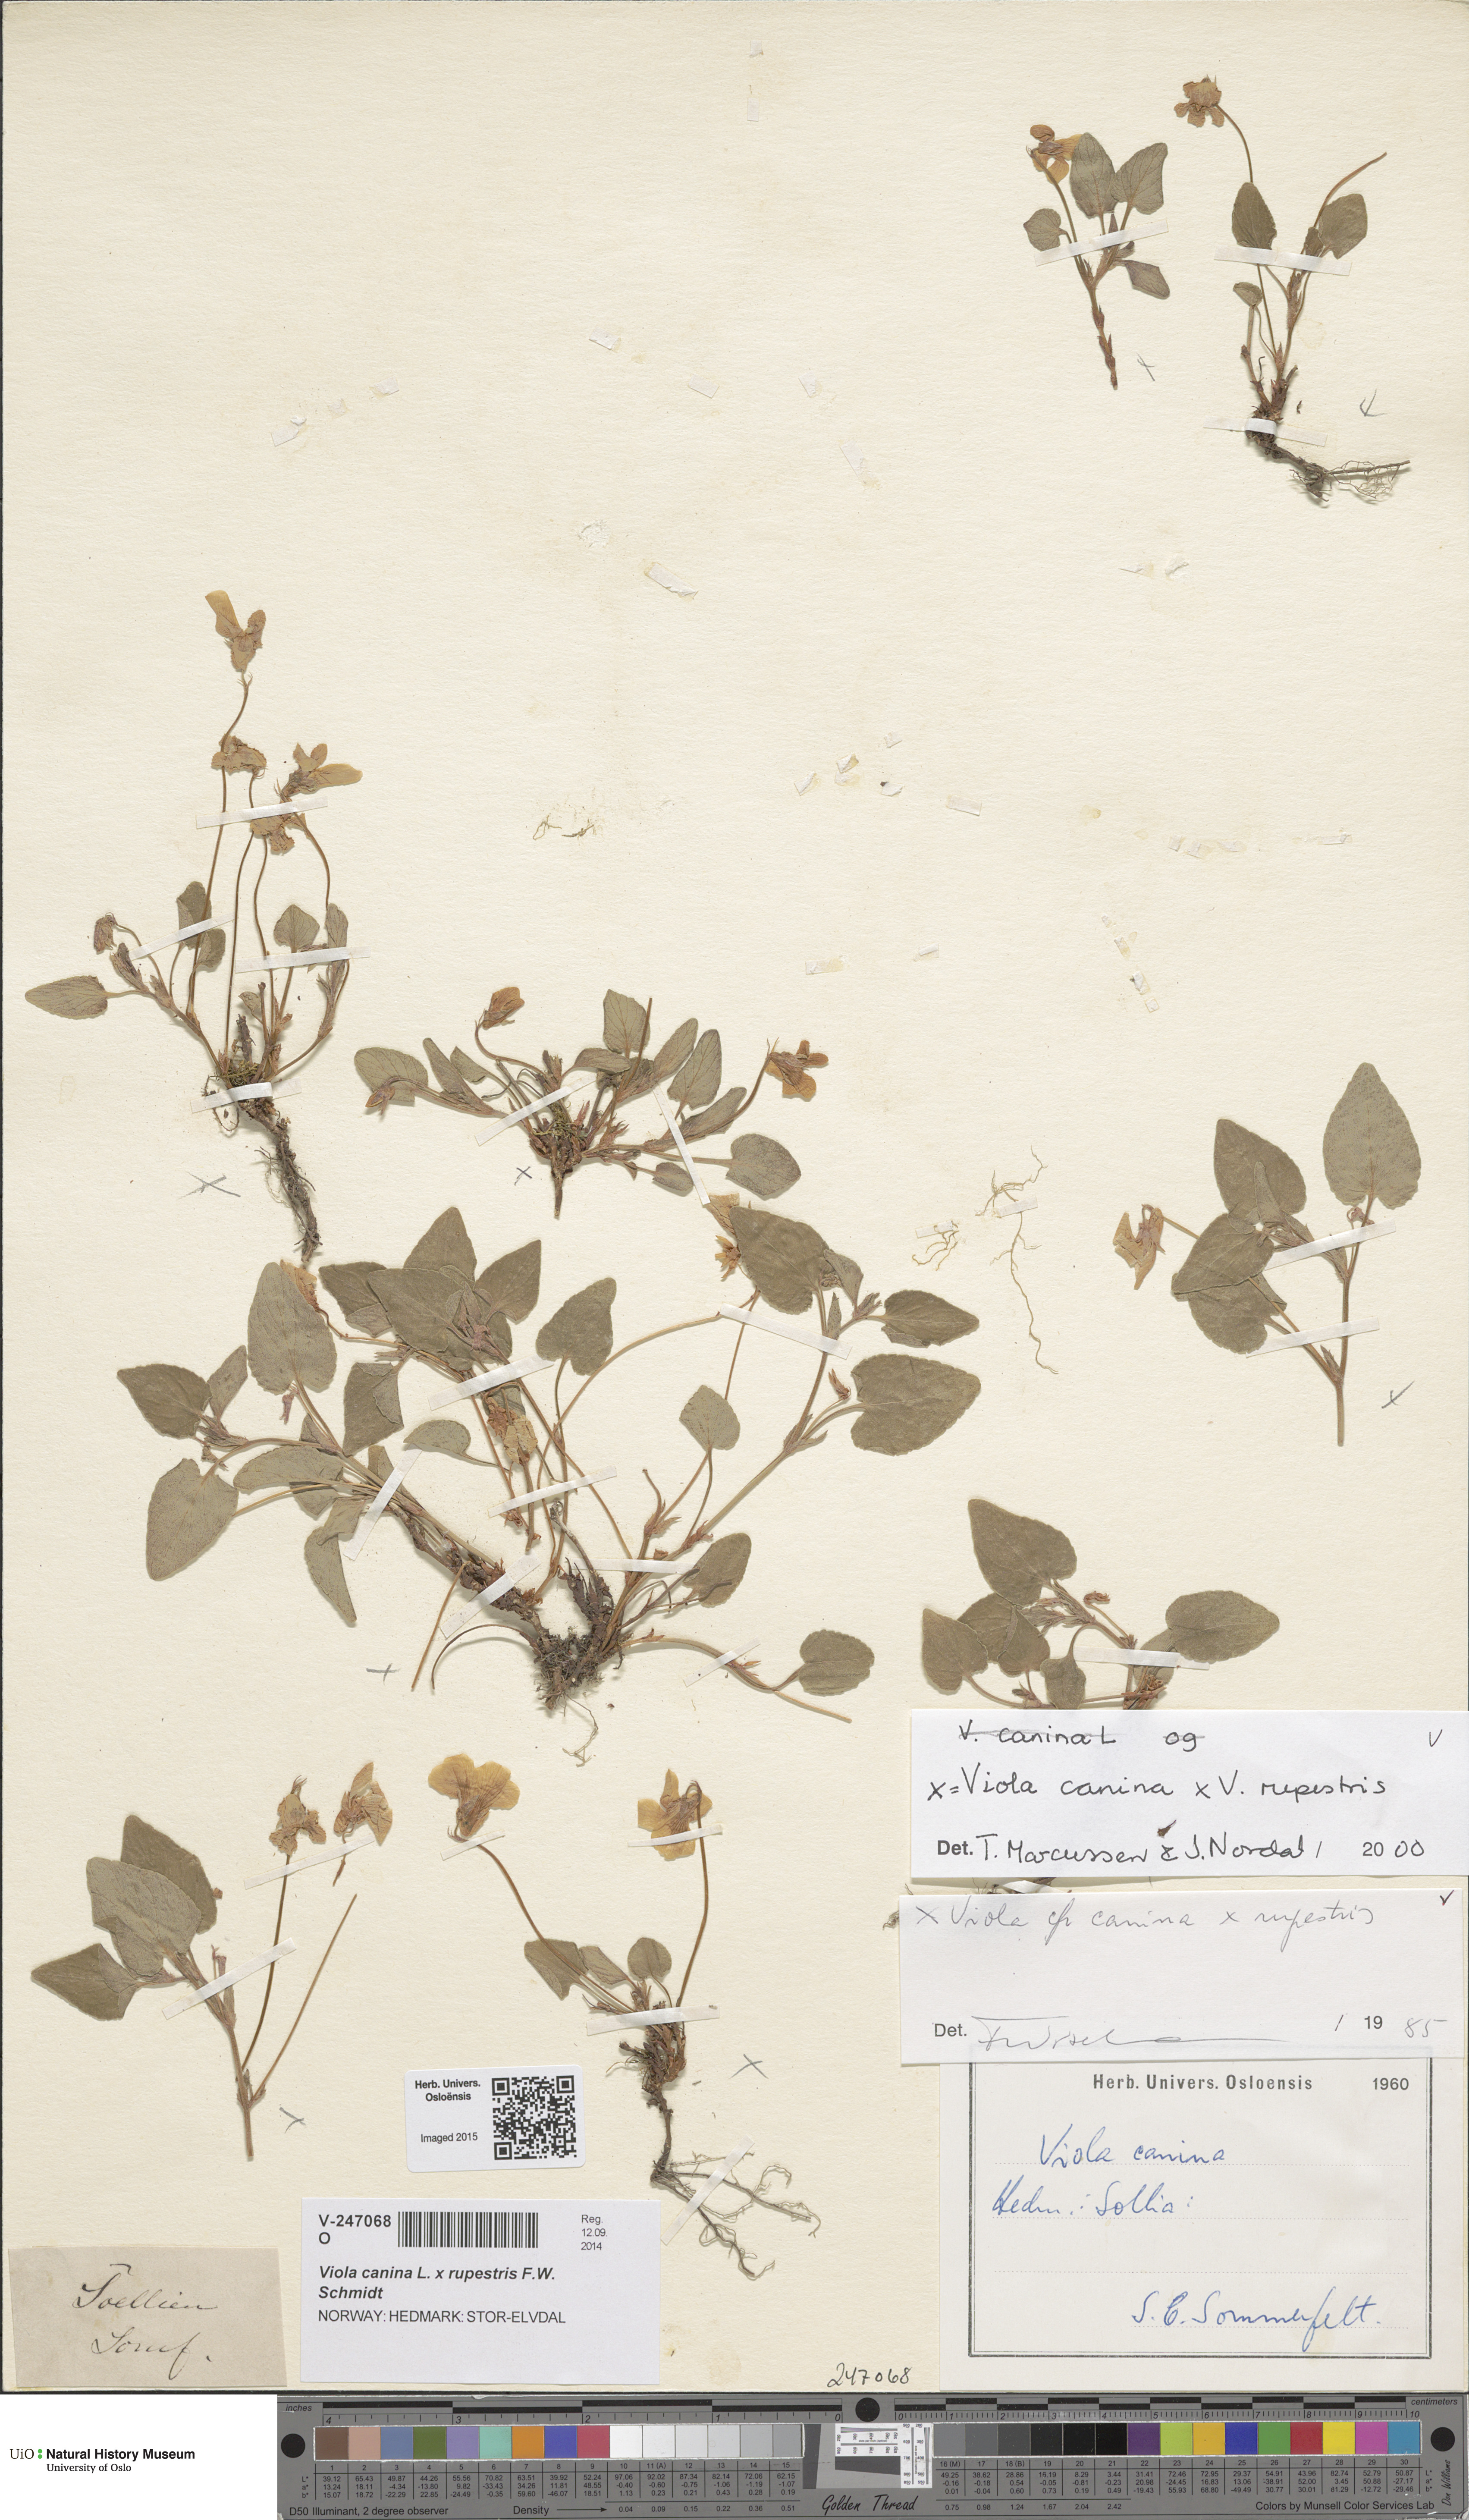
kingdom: Plantae
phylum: Tracheophyta
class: Magnoliopsida
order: Malpighiales
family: Violaceae
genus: Viola
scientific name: Viola
